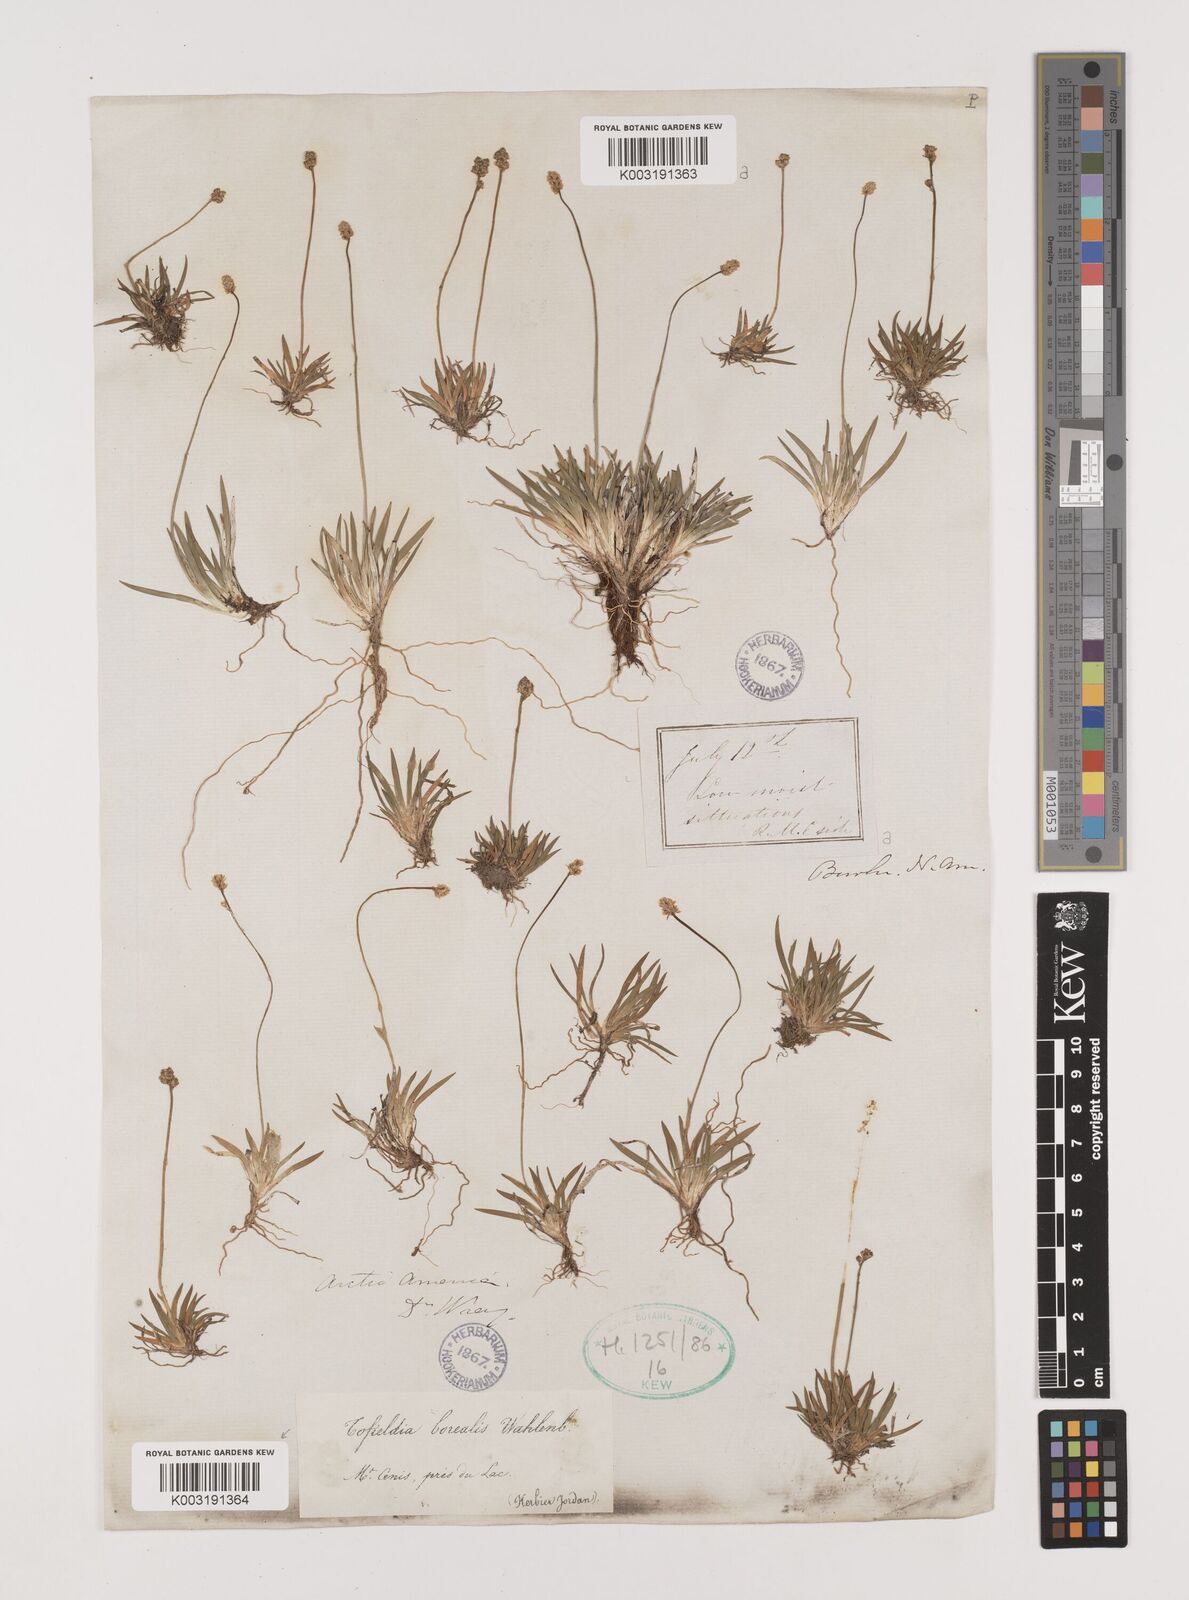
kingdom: Plantae
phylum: Tracheophyta
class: Liliopsida
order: Alismatales
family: Tofieldiaceae
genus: Tofieldia
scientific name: Tofieldia pusilla
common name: Scottish false asphodel
